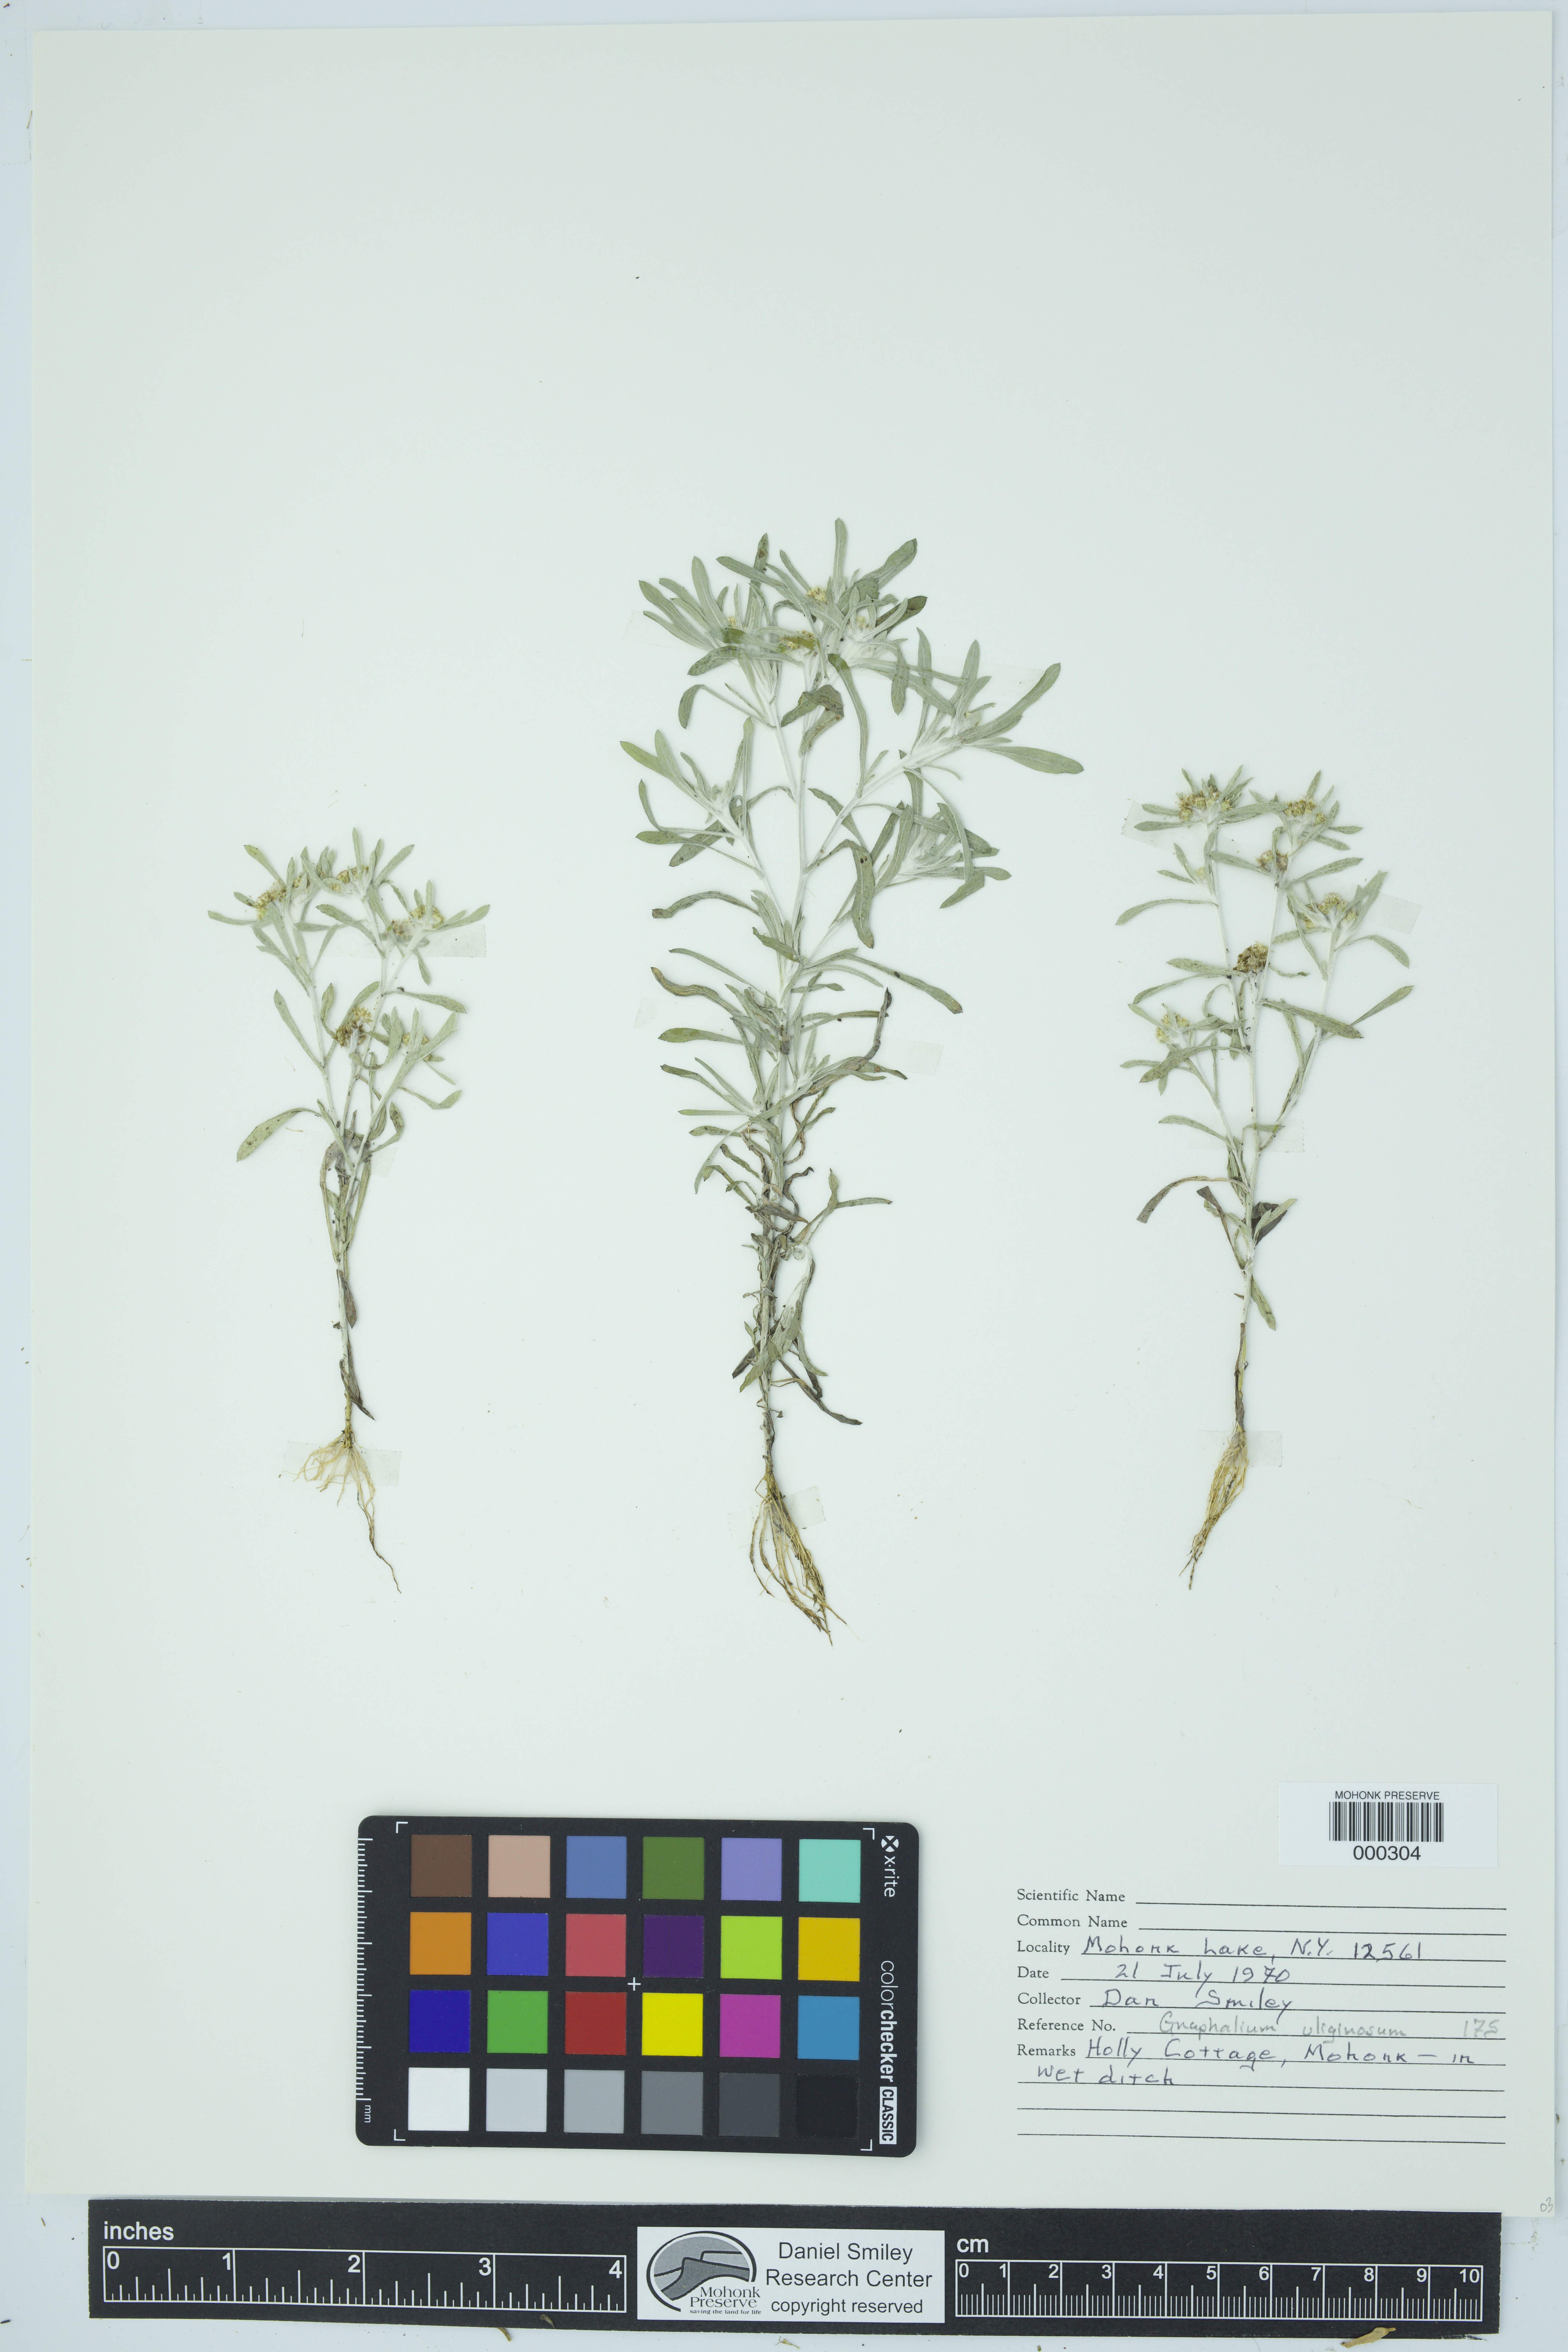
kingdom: Plantae
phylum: Tracheophyta
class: Magnoliopsida
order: Asterales
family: Asteraceae
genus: Gnaphalium
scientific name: Gnaphalium uliginosum
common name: Marsh cudweed
